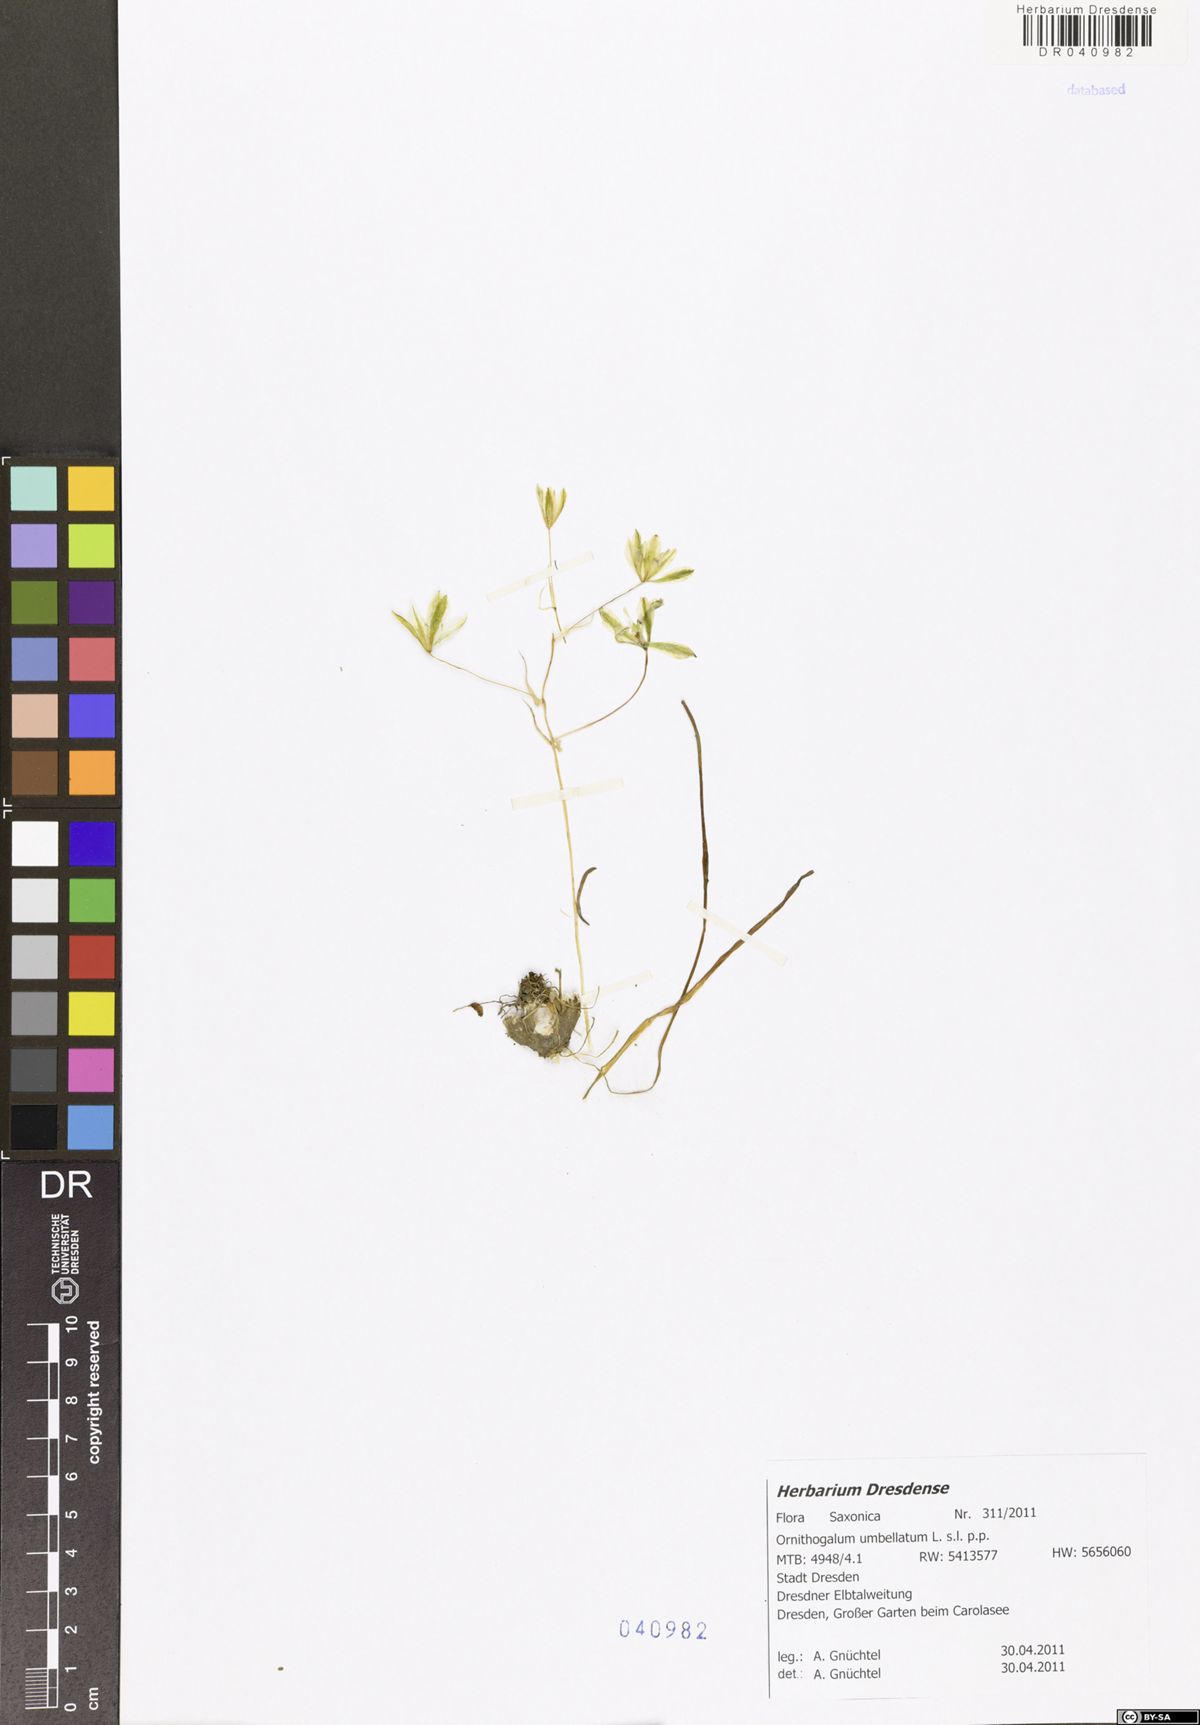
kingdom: Plantae
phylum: Tracheophyta
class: Liliopsida
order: Asparagales
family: Asparagaceae
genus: Ornithogalum
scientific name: Ornithogalum umbellatum
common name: Garden star-of-bethlehem
